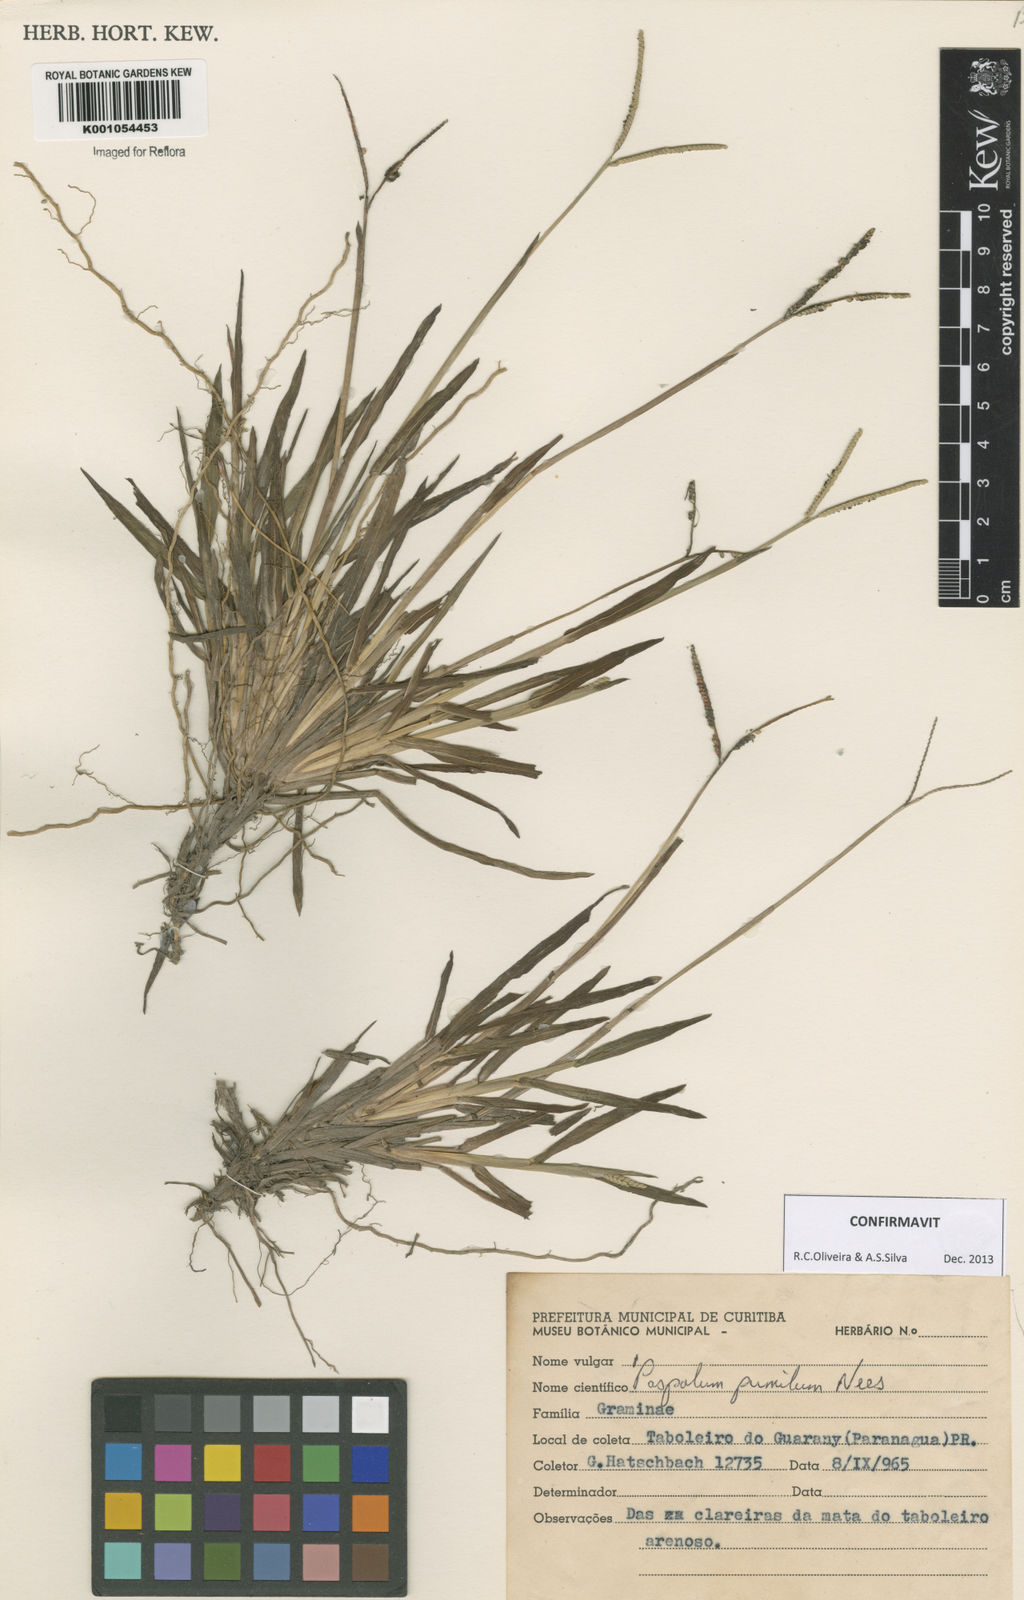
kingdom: Plantae
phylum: Tracheophyta
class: Liliopsida
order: Poales
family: Poaceae
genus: Paspalum
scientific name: Paspalum pumilum
